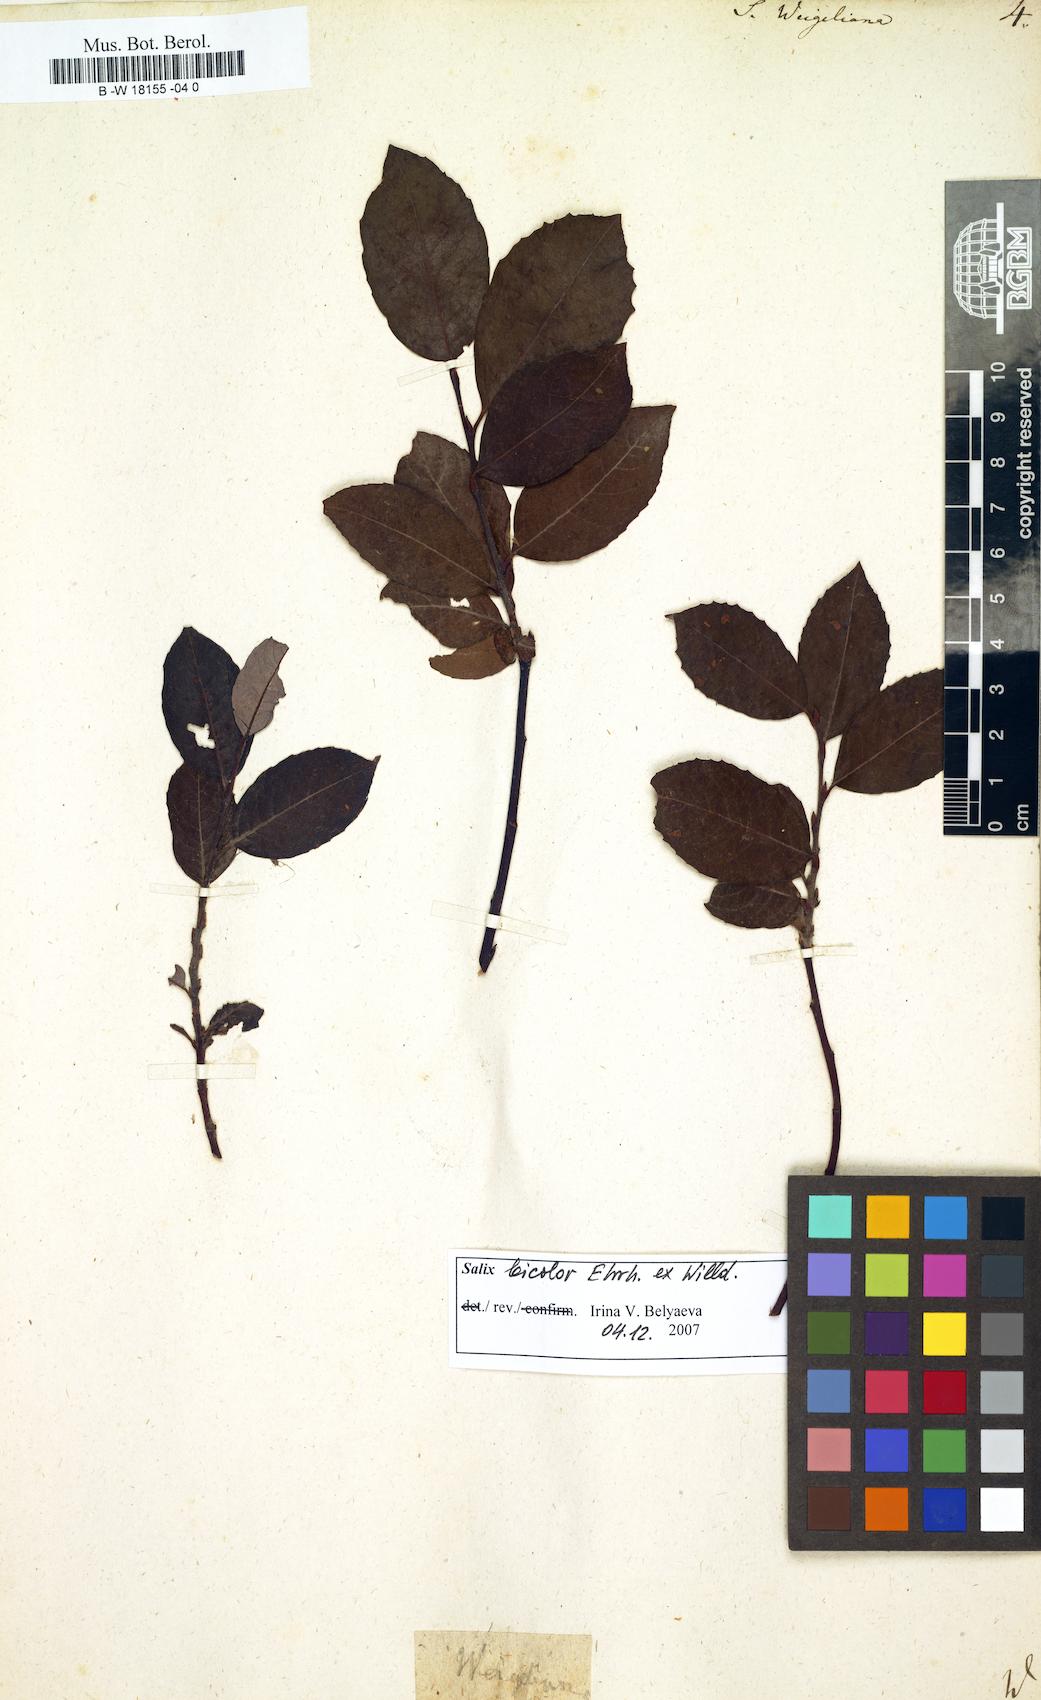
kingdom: Plantae
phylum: Tracheophyta
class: Magnoliopsida
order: Malpighiales
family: Salicaceae
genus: Salix
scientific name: Salix bicolor
